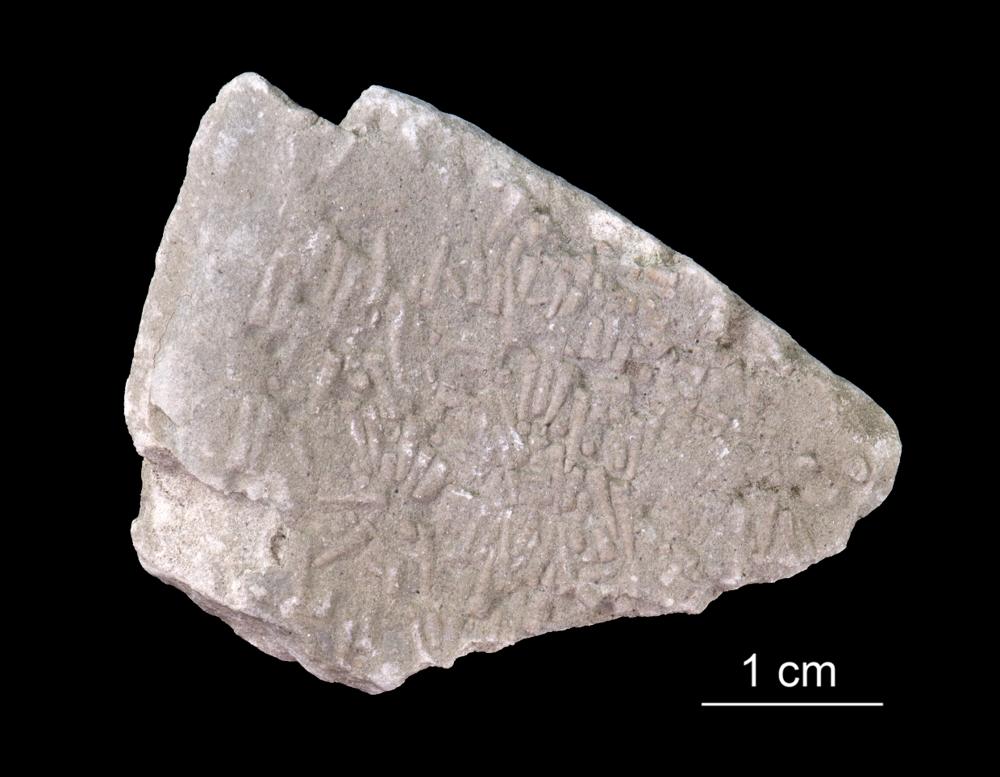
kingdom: Animalia
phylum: Annelida
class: Polychaeta
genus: Volborthella
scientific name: Volborthella tenuis
